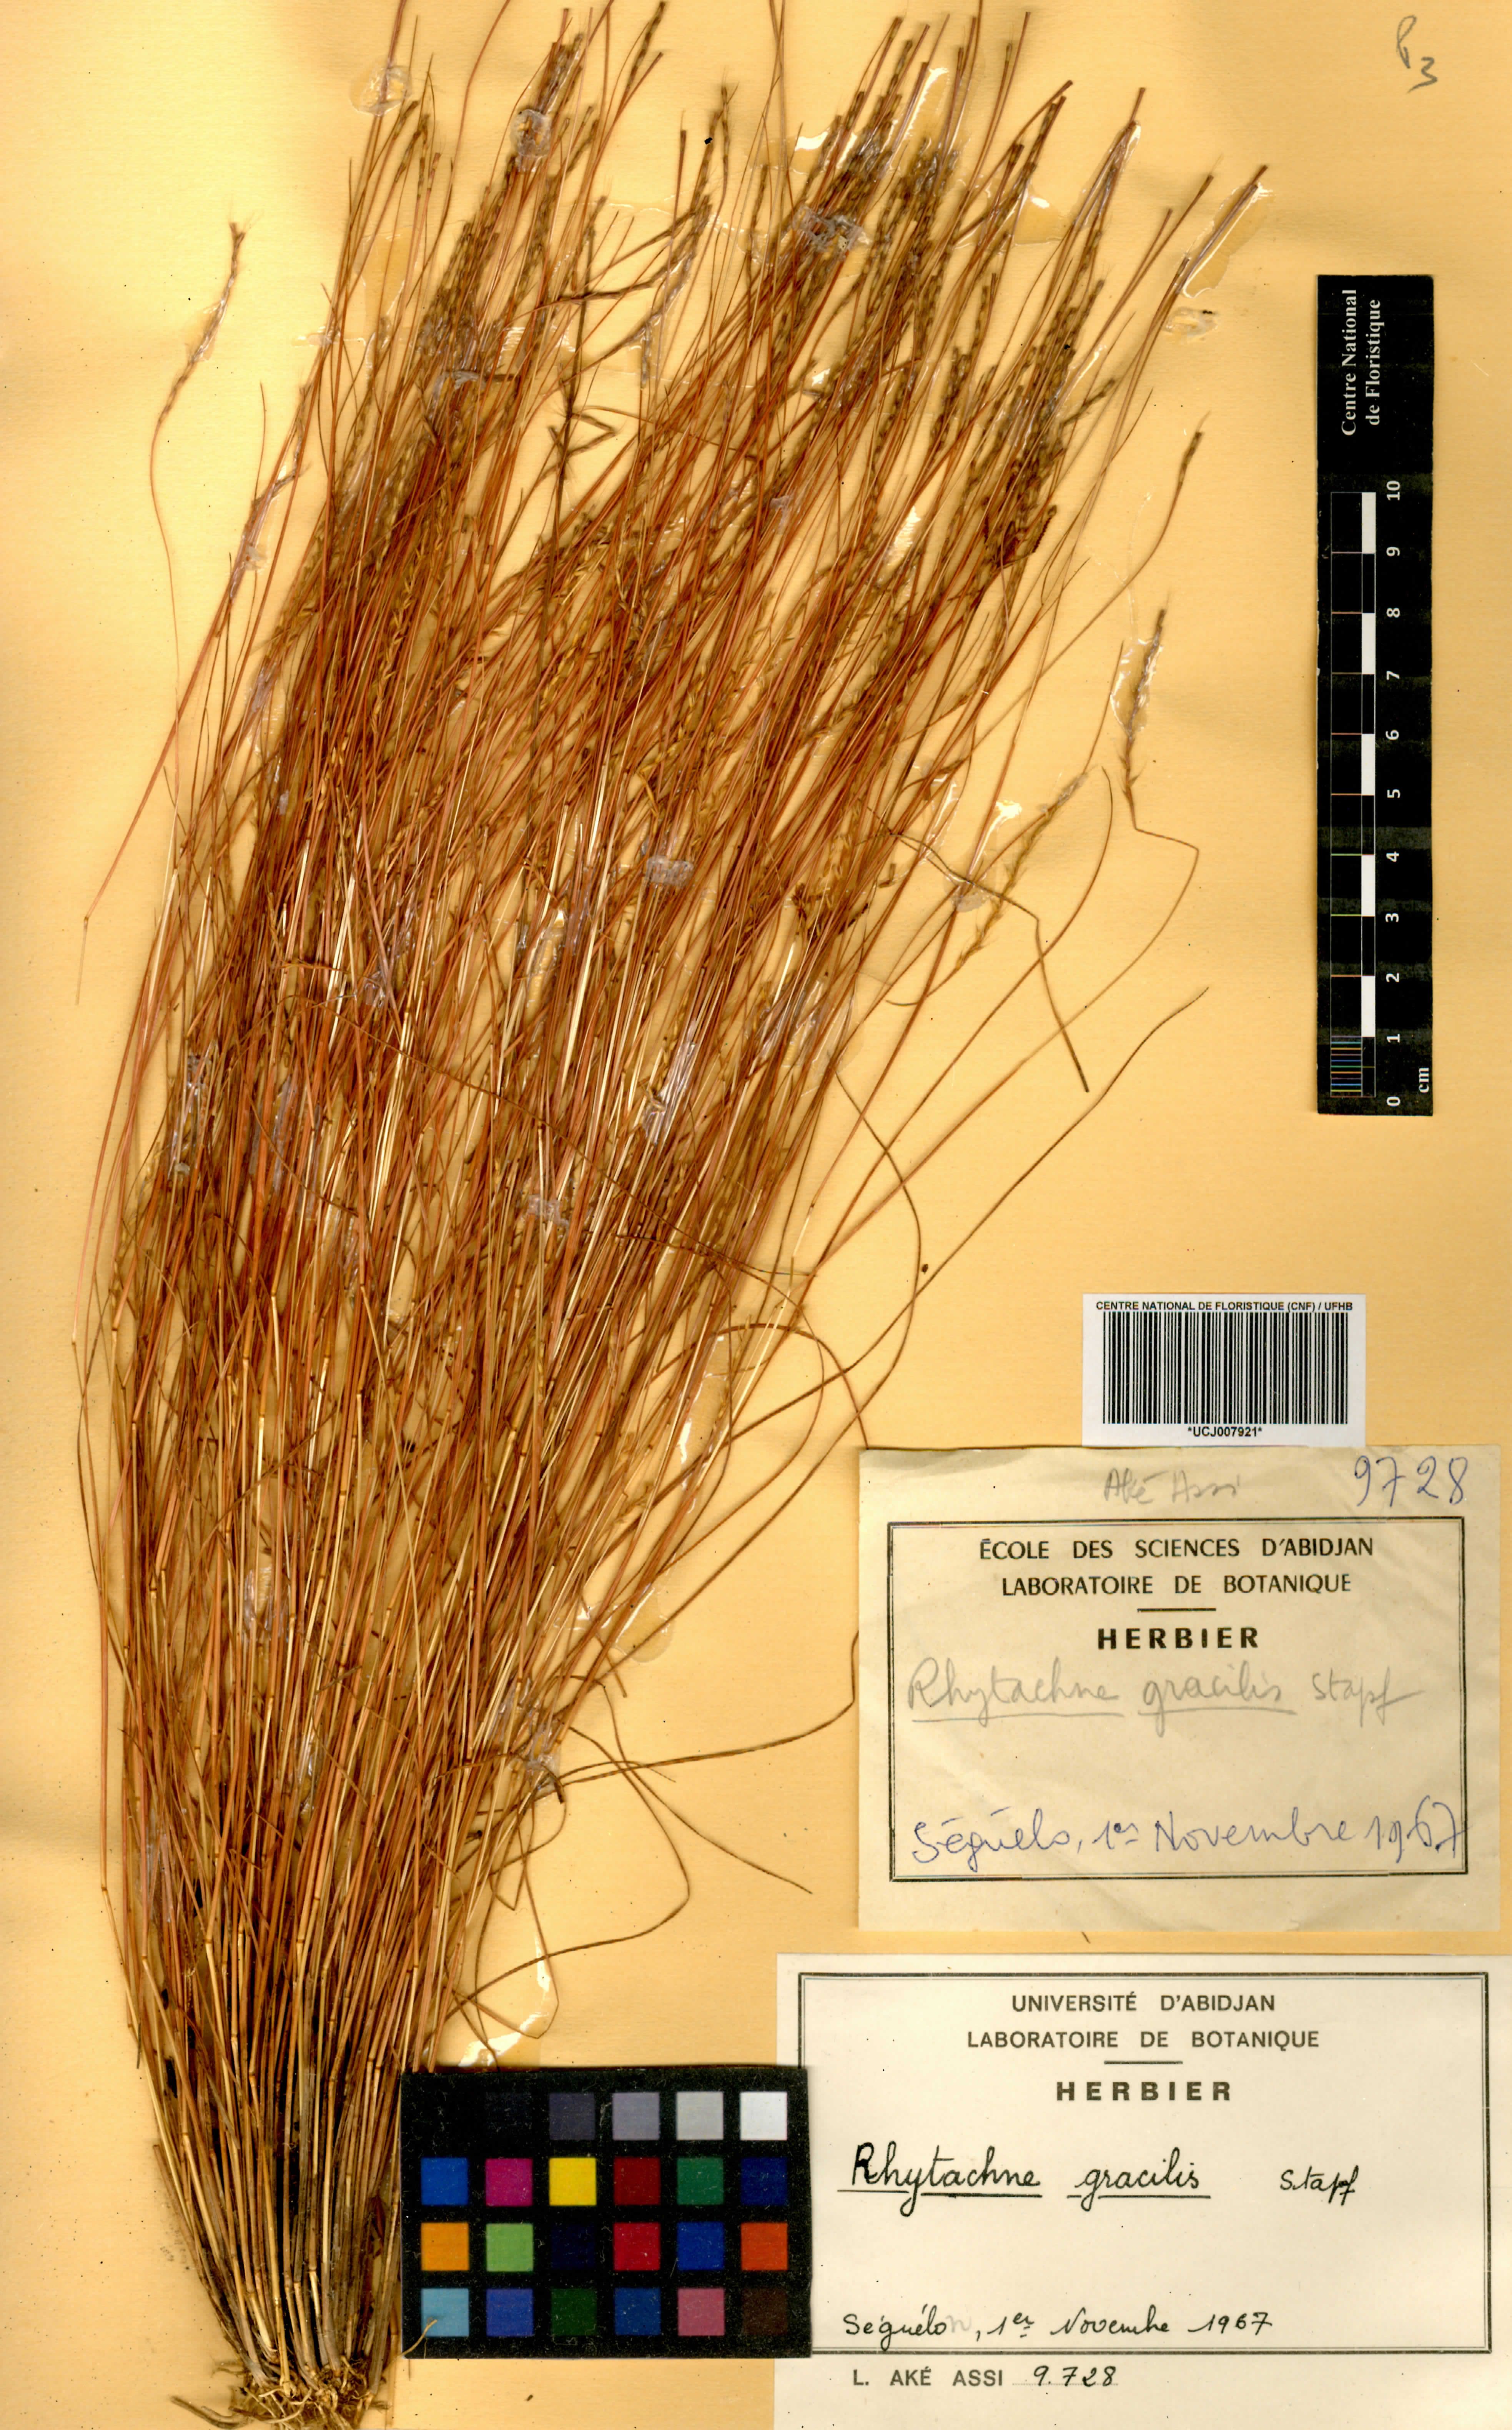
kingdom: Plantae
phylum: Tracheophyta
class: Liliopsida
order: Poales
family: Poaceae
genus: Rhytachne
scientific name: Rhytachne gracilis
